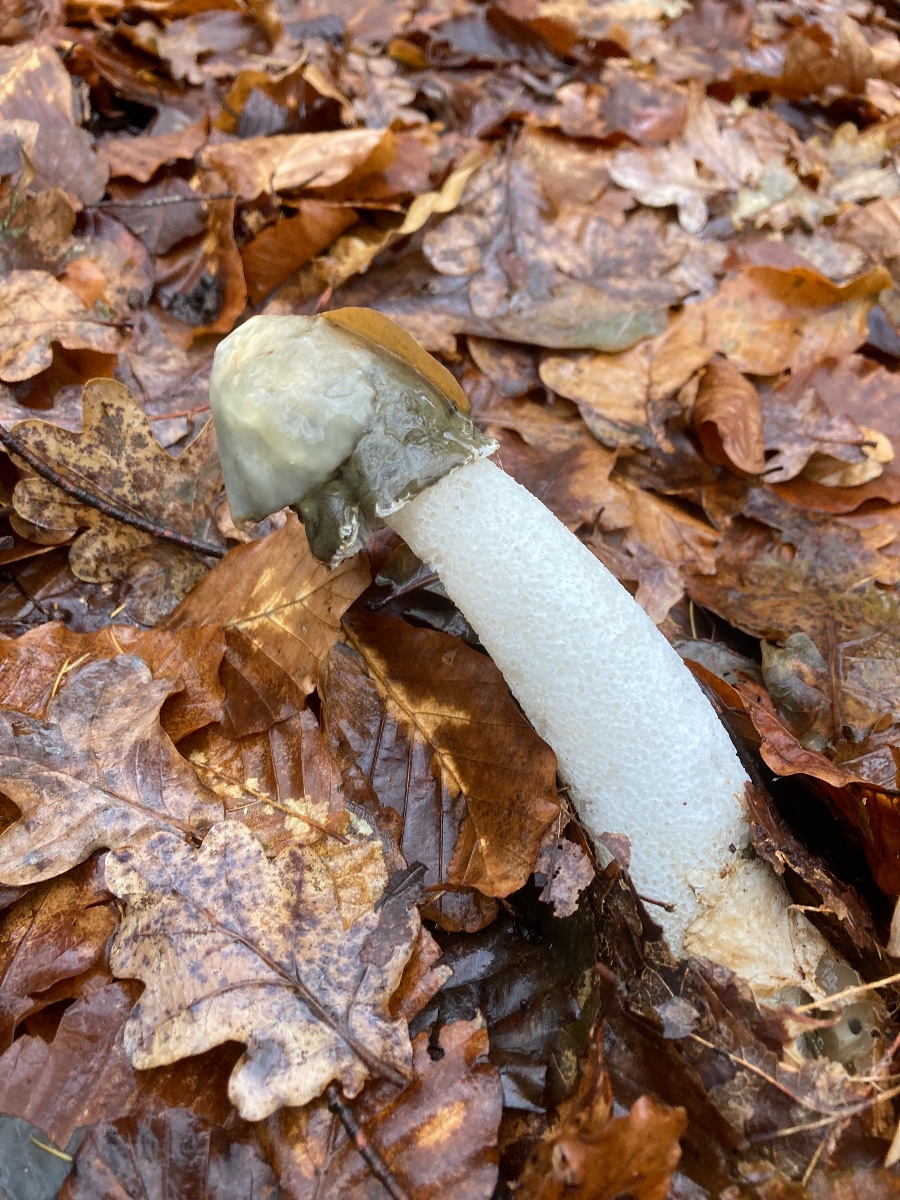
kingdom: Fungi
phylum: Basidiomycota
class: Agaricomycetes
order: Phallales
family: Phallaceae
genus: Phallus
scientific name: Phallus impudicus
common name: almindelig stinksvamp
